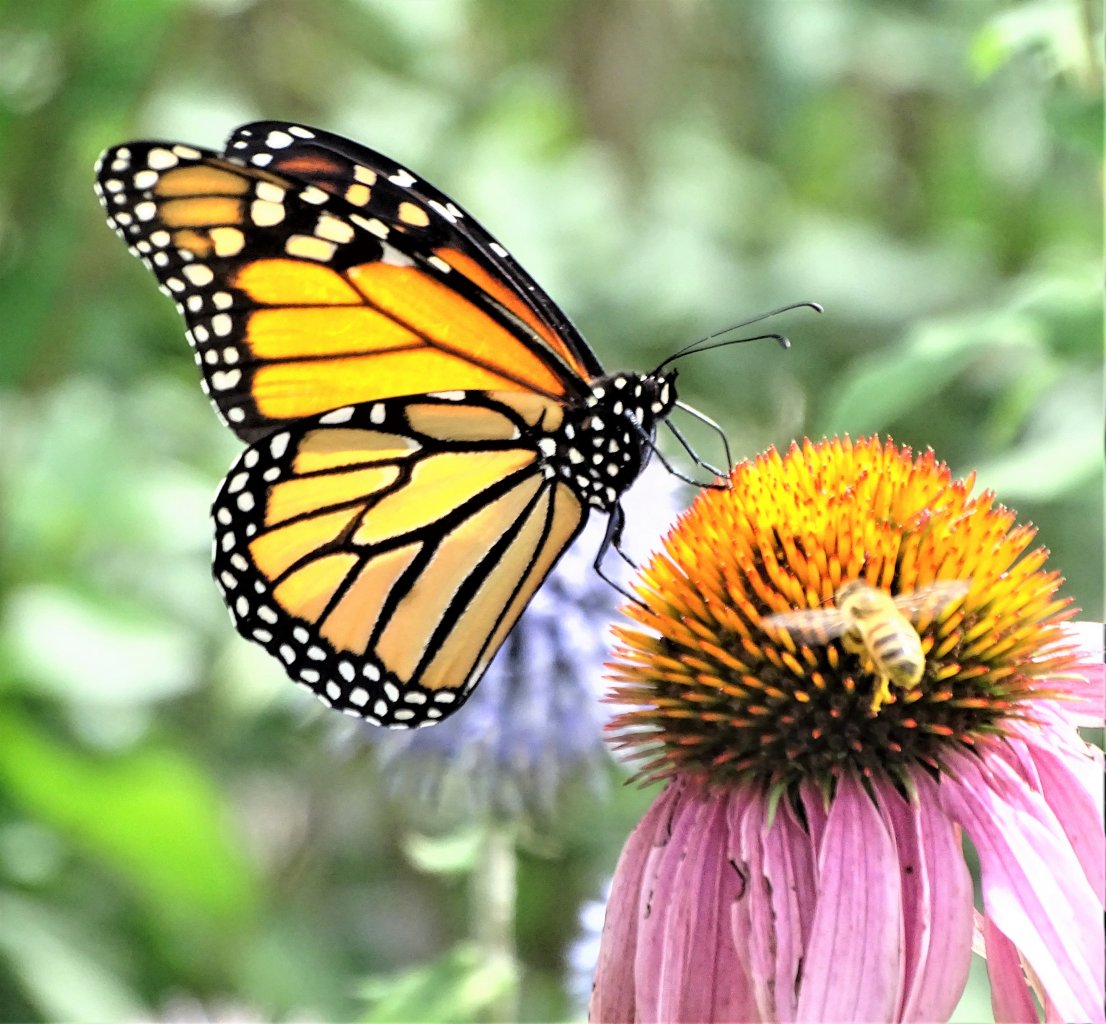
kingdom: Animalia
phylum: Arthropoda
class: Insecta
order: Lepidoptera
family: Nymphalidae
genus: Danaus
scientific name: Danaus plexippus
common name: Monarch
